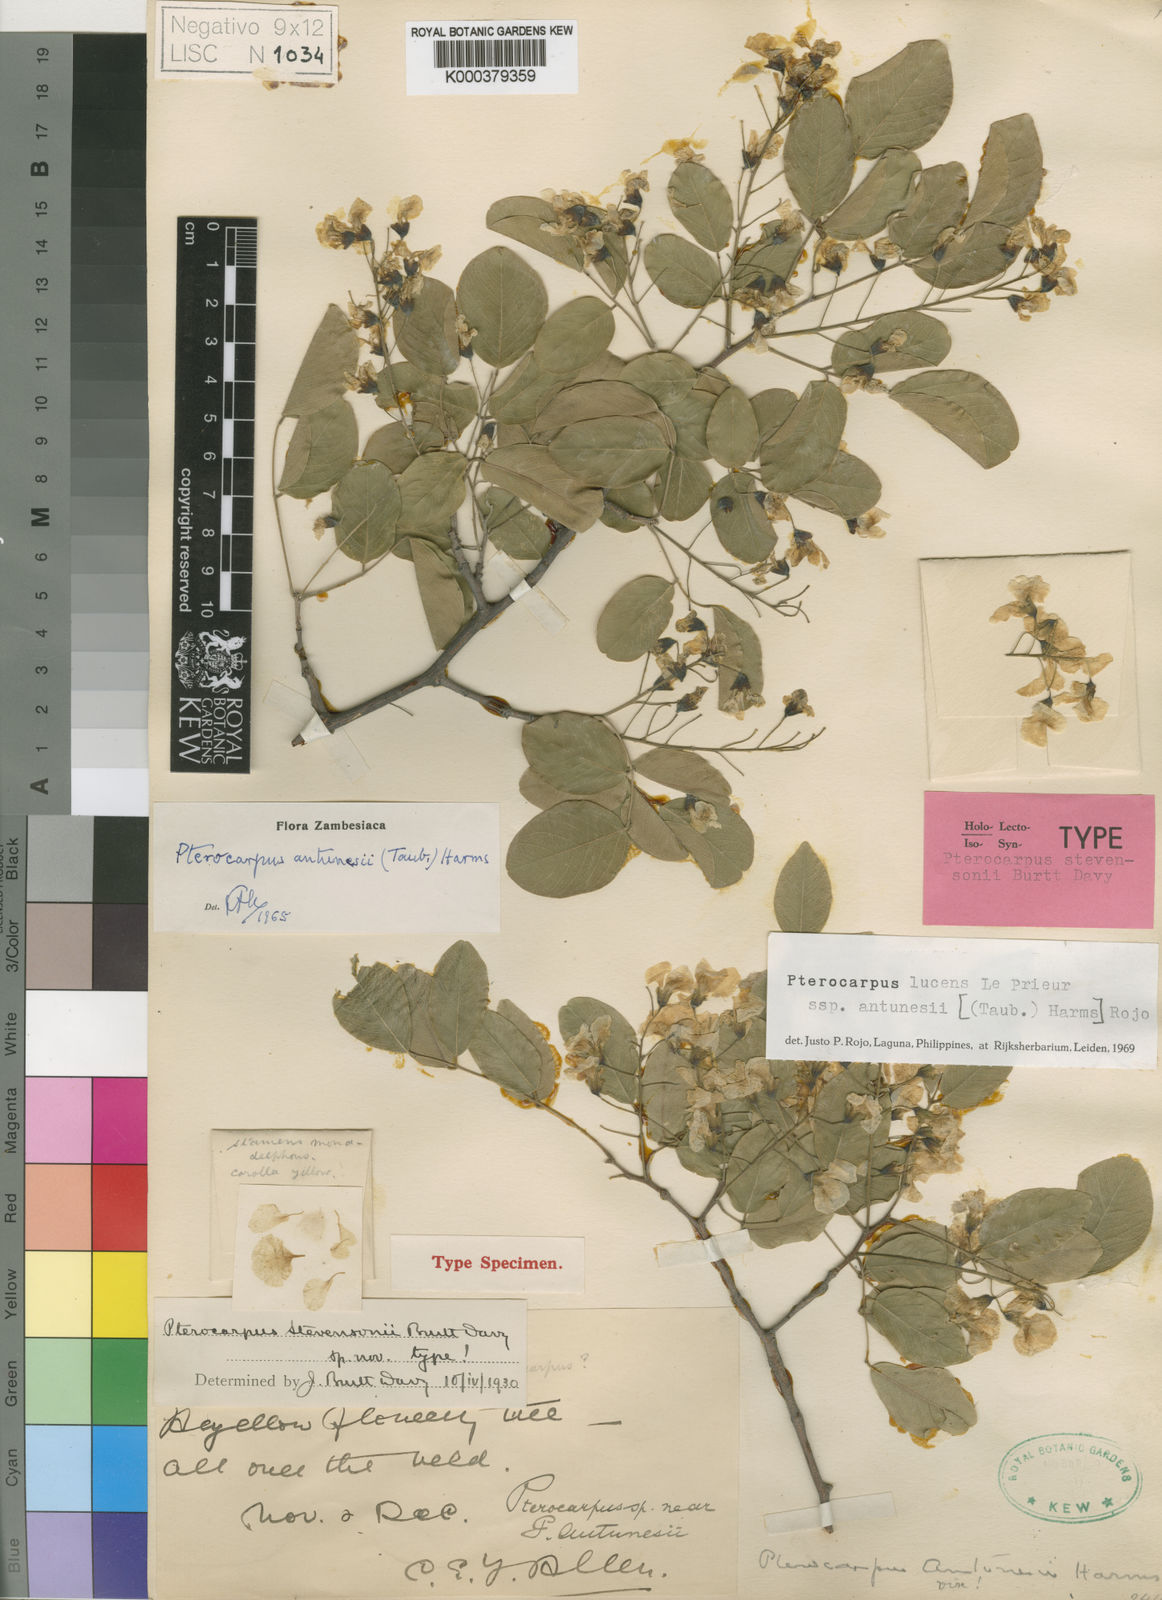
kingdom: Plantae
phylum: Tracheophyta
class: Magnoliopsida
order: Fabales
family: Fabaceae
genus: Pterocarpus
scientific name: Pterocarpus lucens
